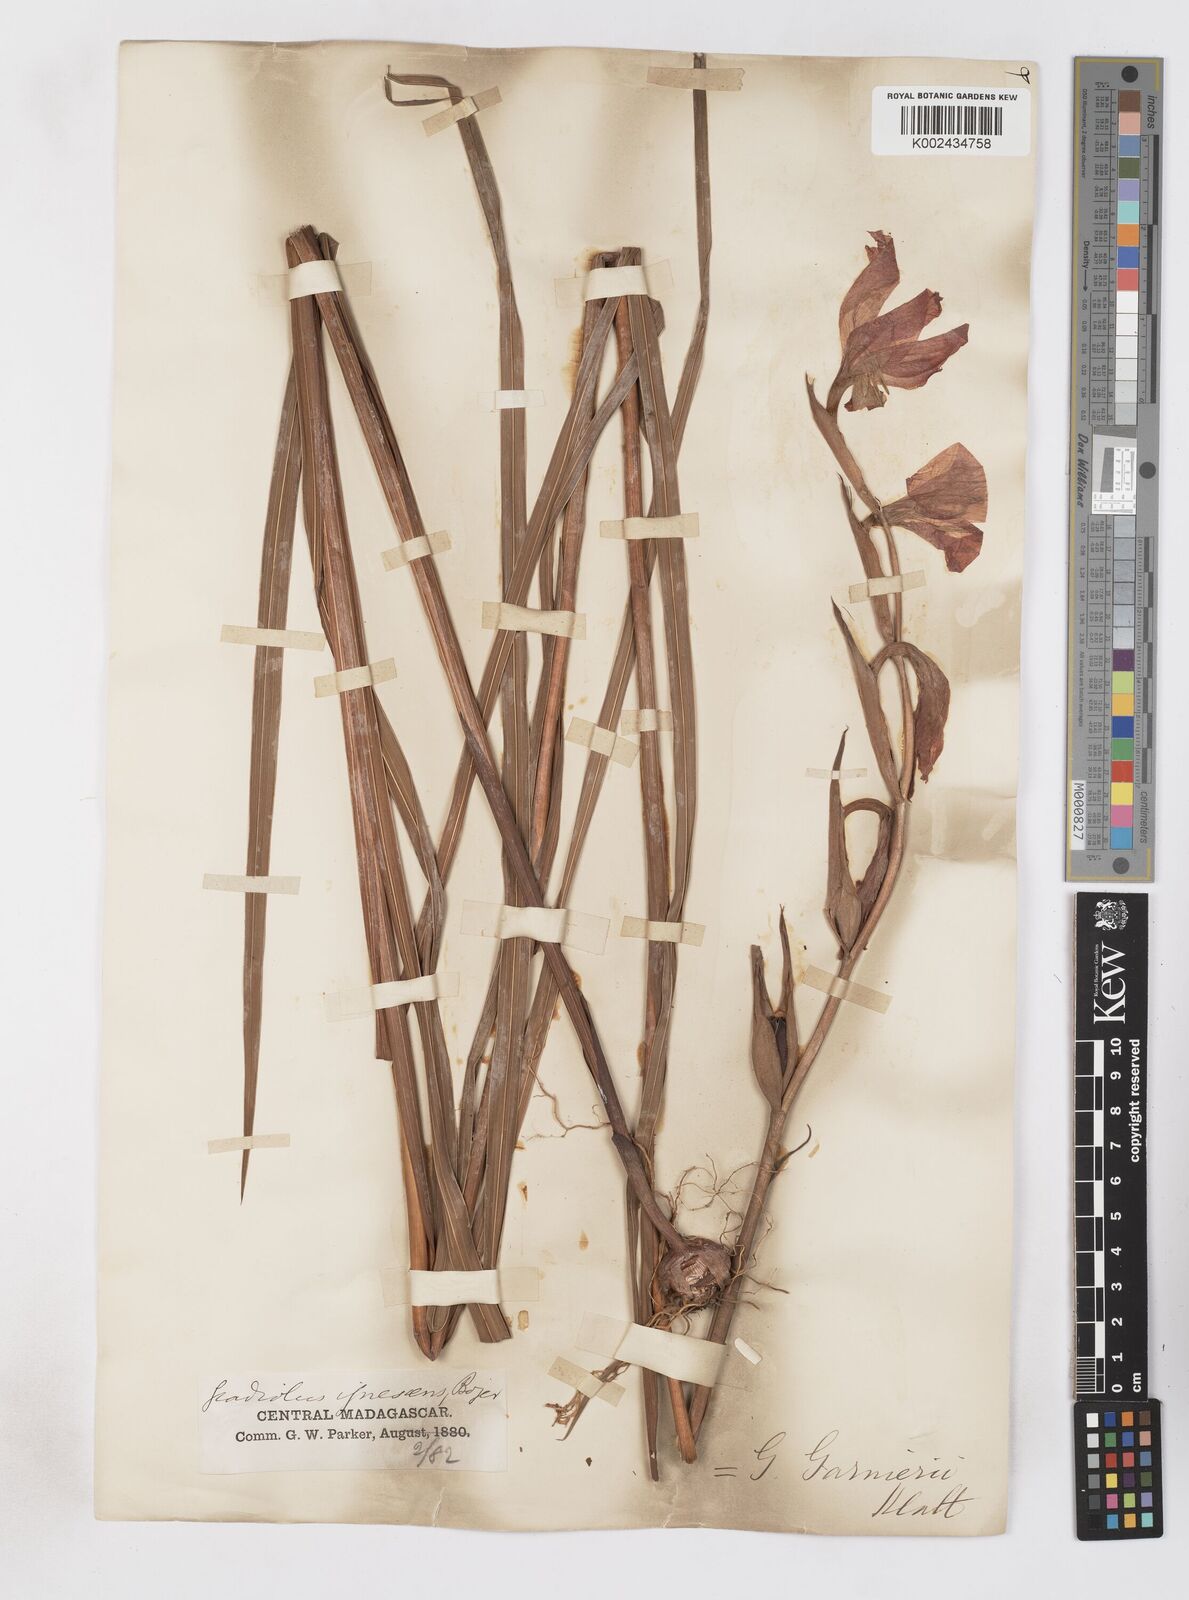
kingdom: Plantae
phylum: Tracheophyta
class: Liliopsida
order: Asparagales
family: Iridaceae
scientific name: Iridaceae
